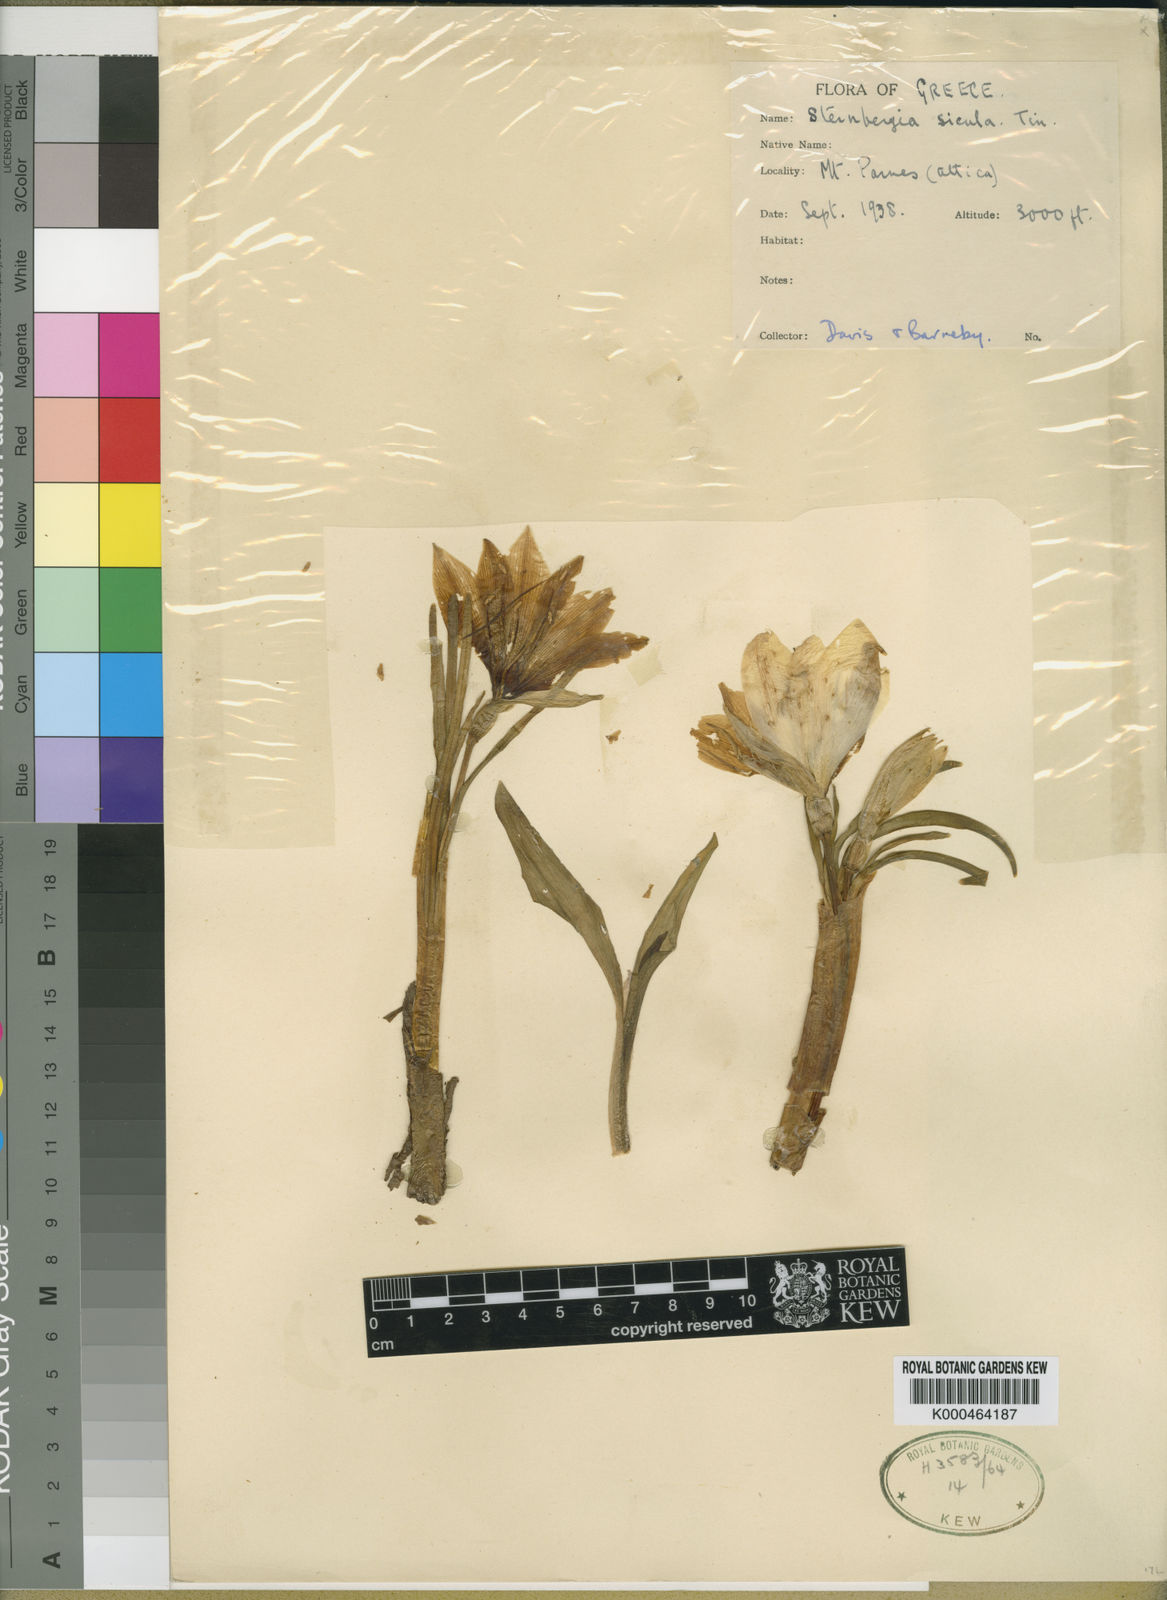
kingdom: Plantae
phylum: Tracheophyta
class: Liliopsida
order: Asparagales
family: Amaryllidaceae
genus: Sternbergia
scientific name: Sternbergia
